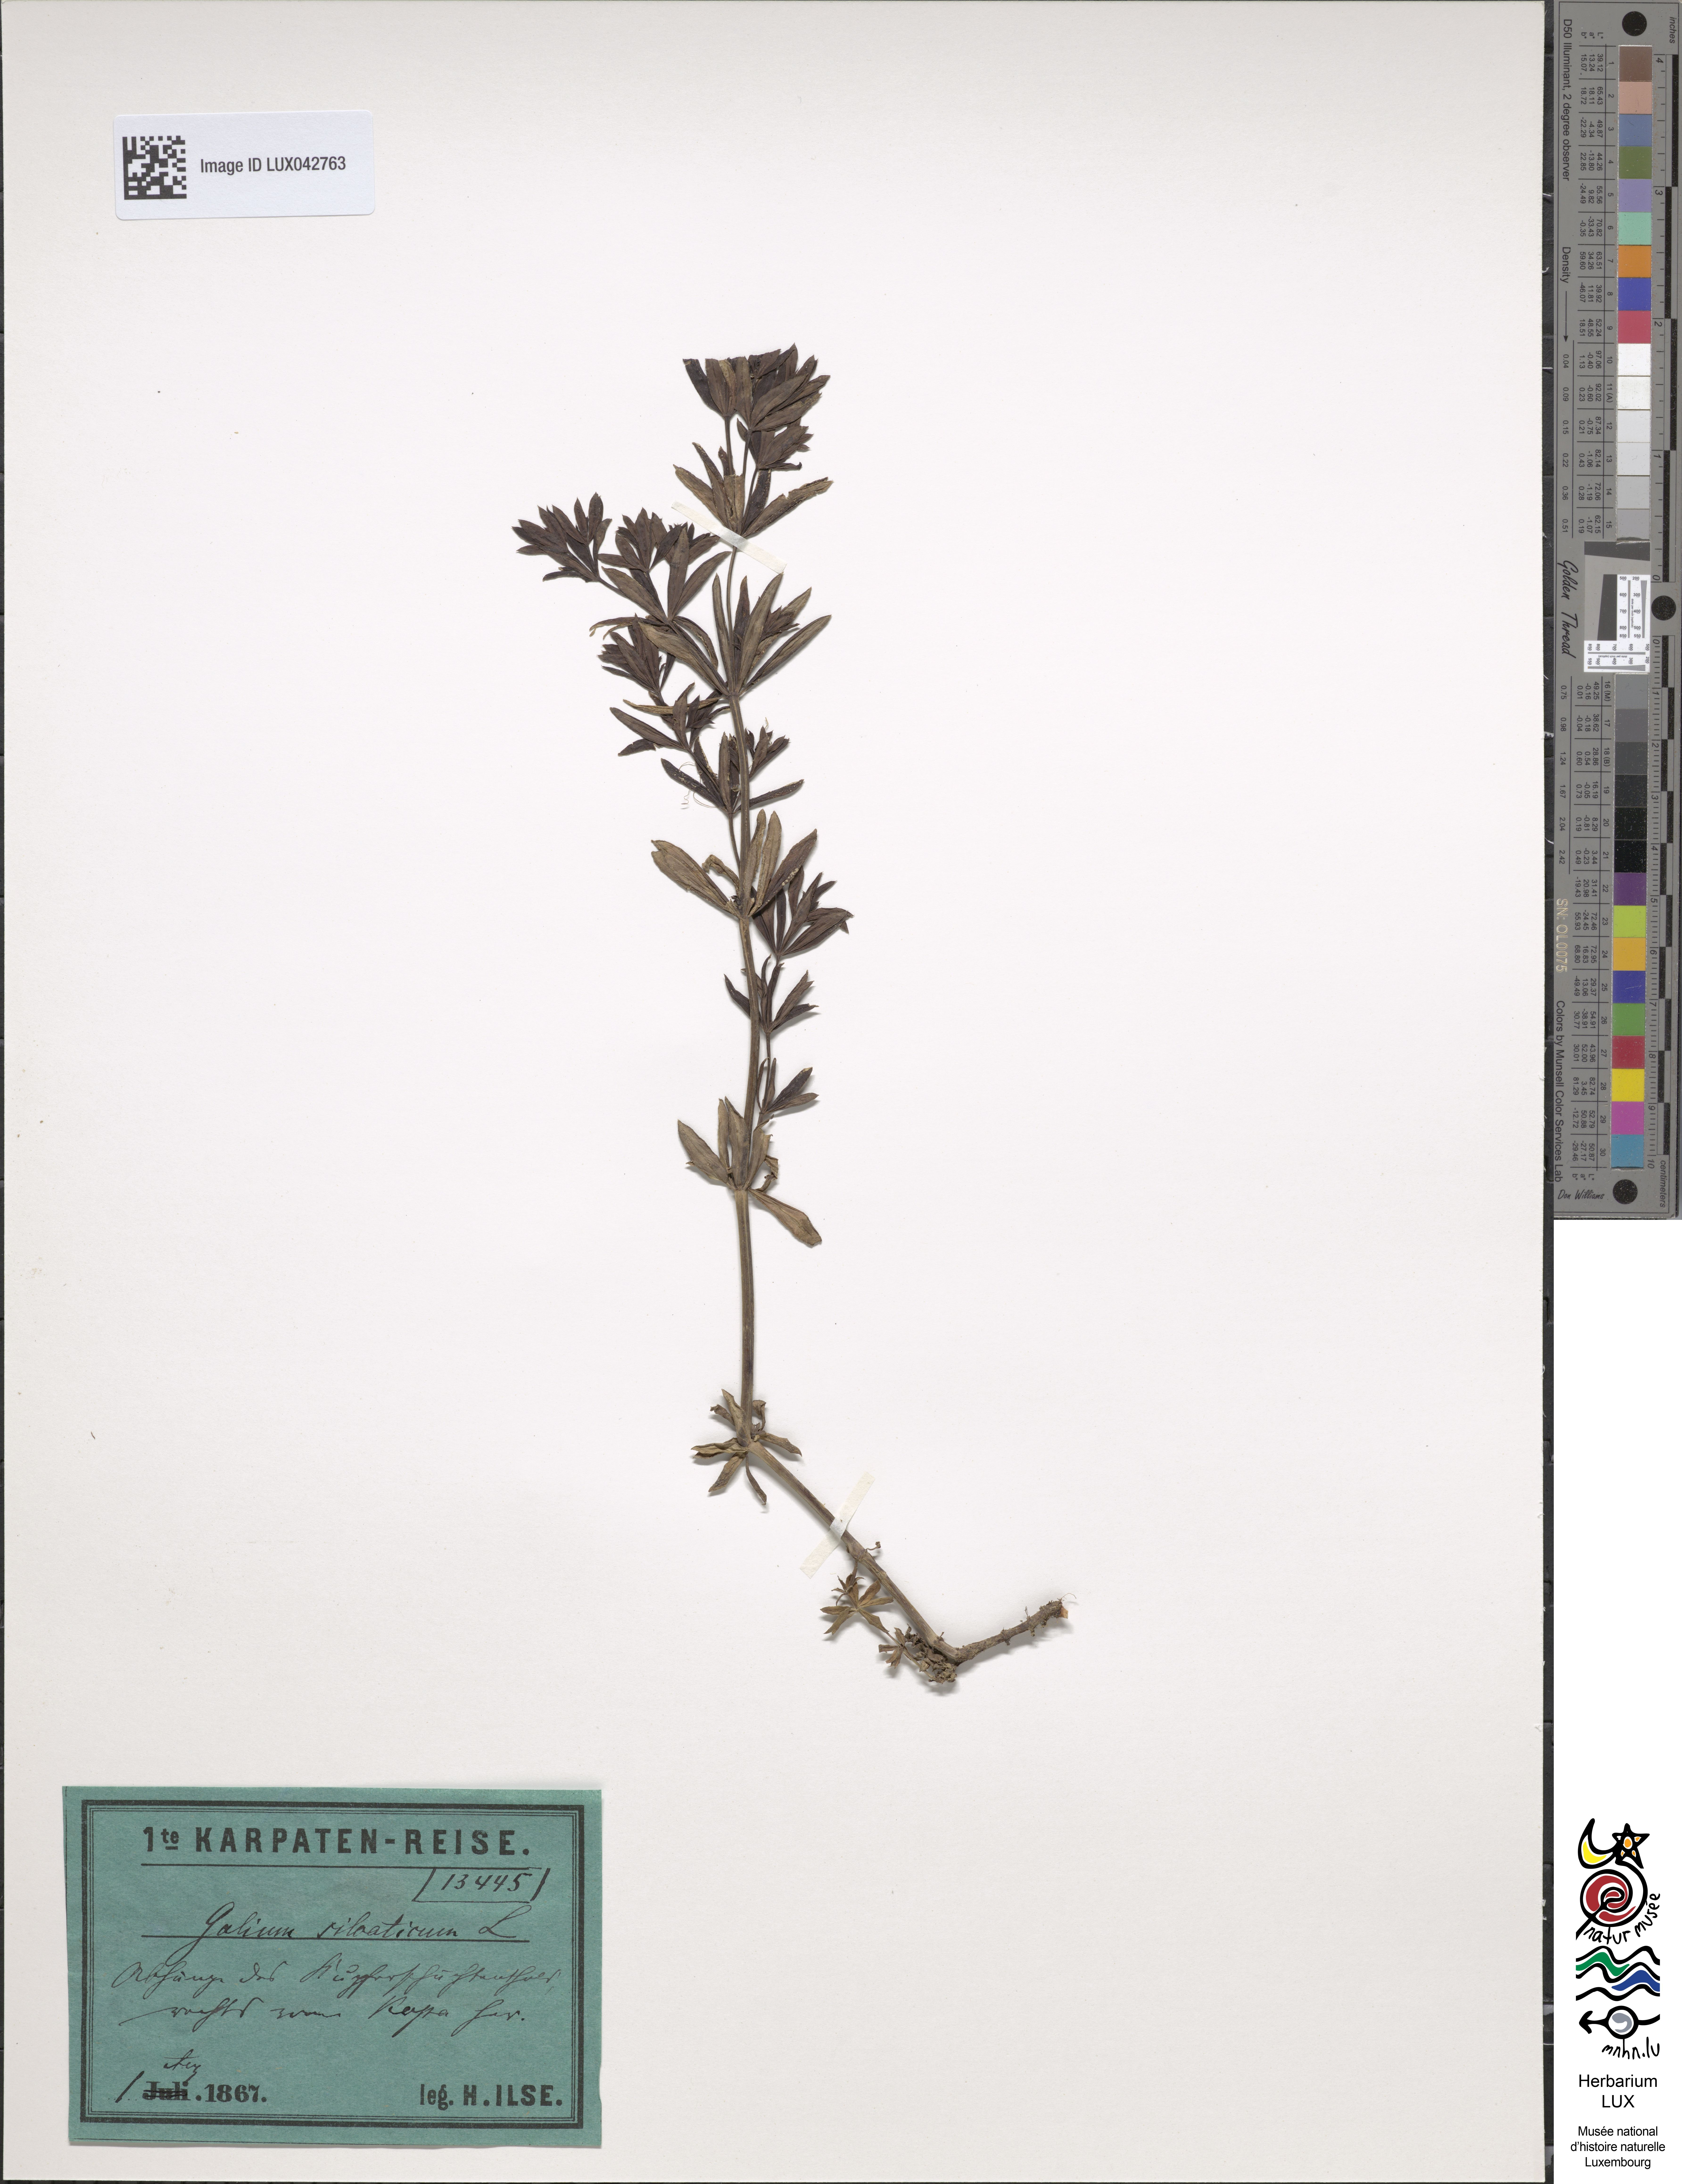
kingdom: Plantae
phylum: Tracheophyta
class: Magnoliopsida
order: Gentianales
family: Rubiaceae
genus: Galium
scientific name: Galium sylvaticum
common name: Wood bedstraw
